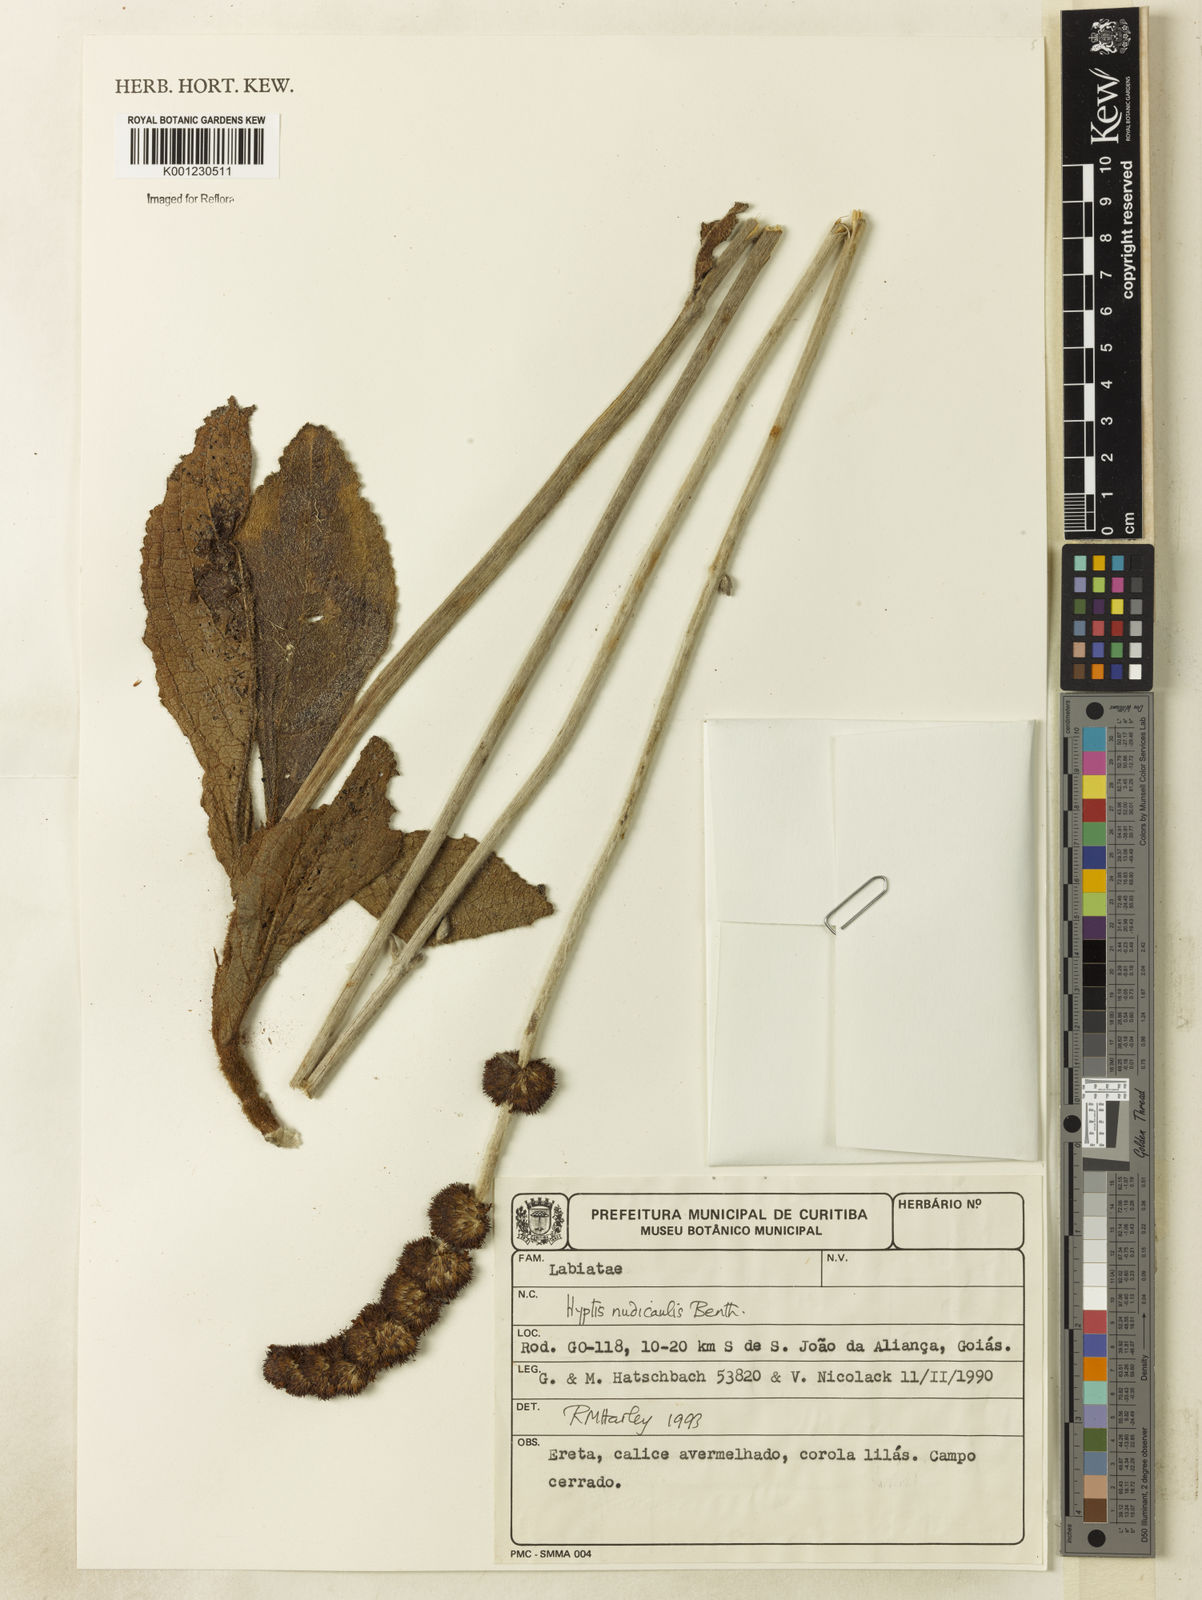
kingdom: Plantae
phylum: Tracheophyta
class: Magnoliopsida
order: Lamiales
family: Lamiaceae
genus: Hyptis
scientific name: Hyptis nudicaulis
